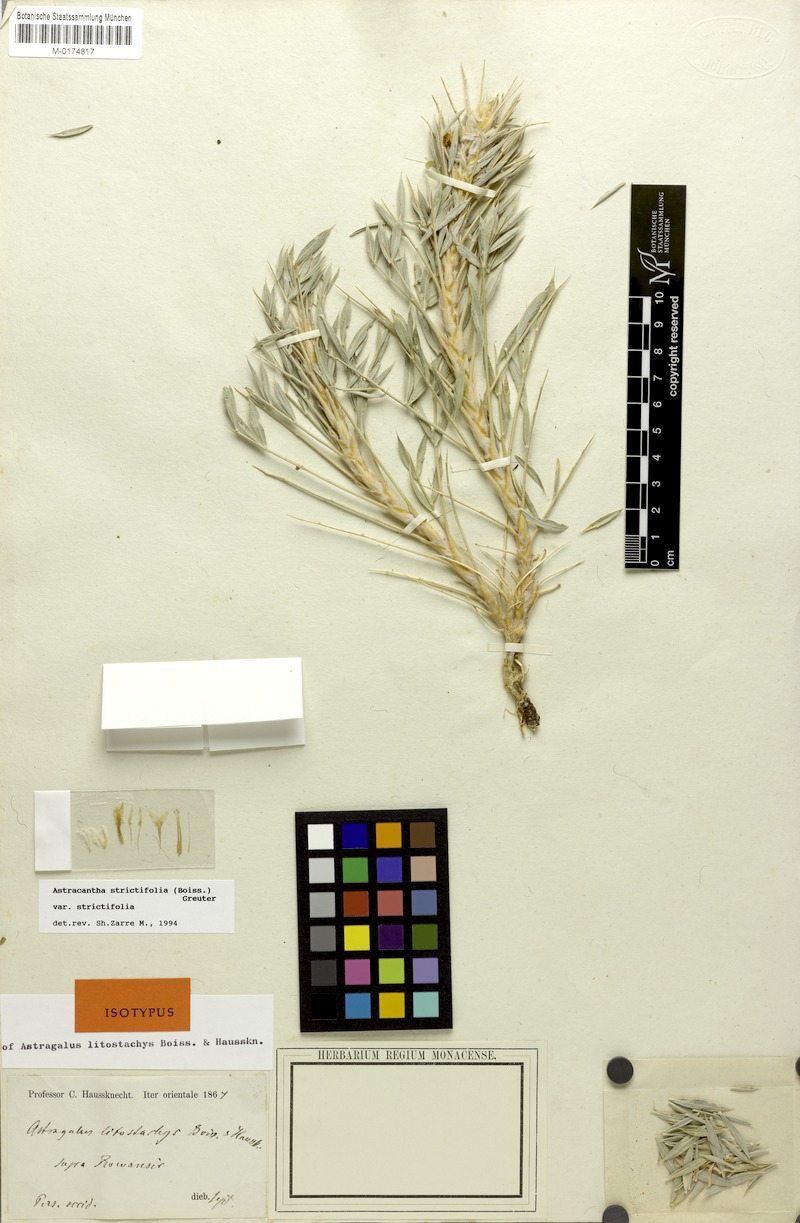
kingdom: Plantae
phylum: Tracheophyta
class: Magnoliopsida
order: Fabales
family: Fabaceae
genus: Astragalus
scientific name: Astragalus compactus
